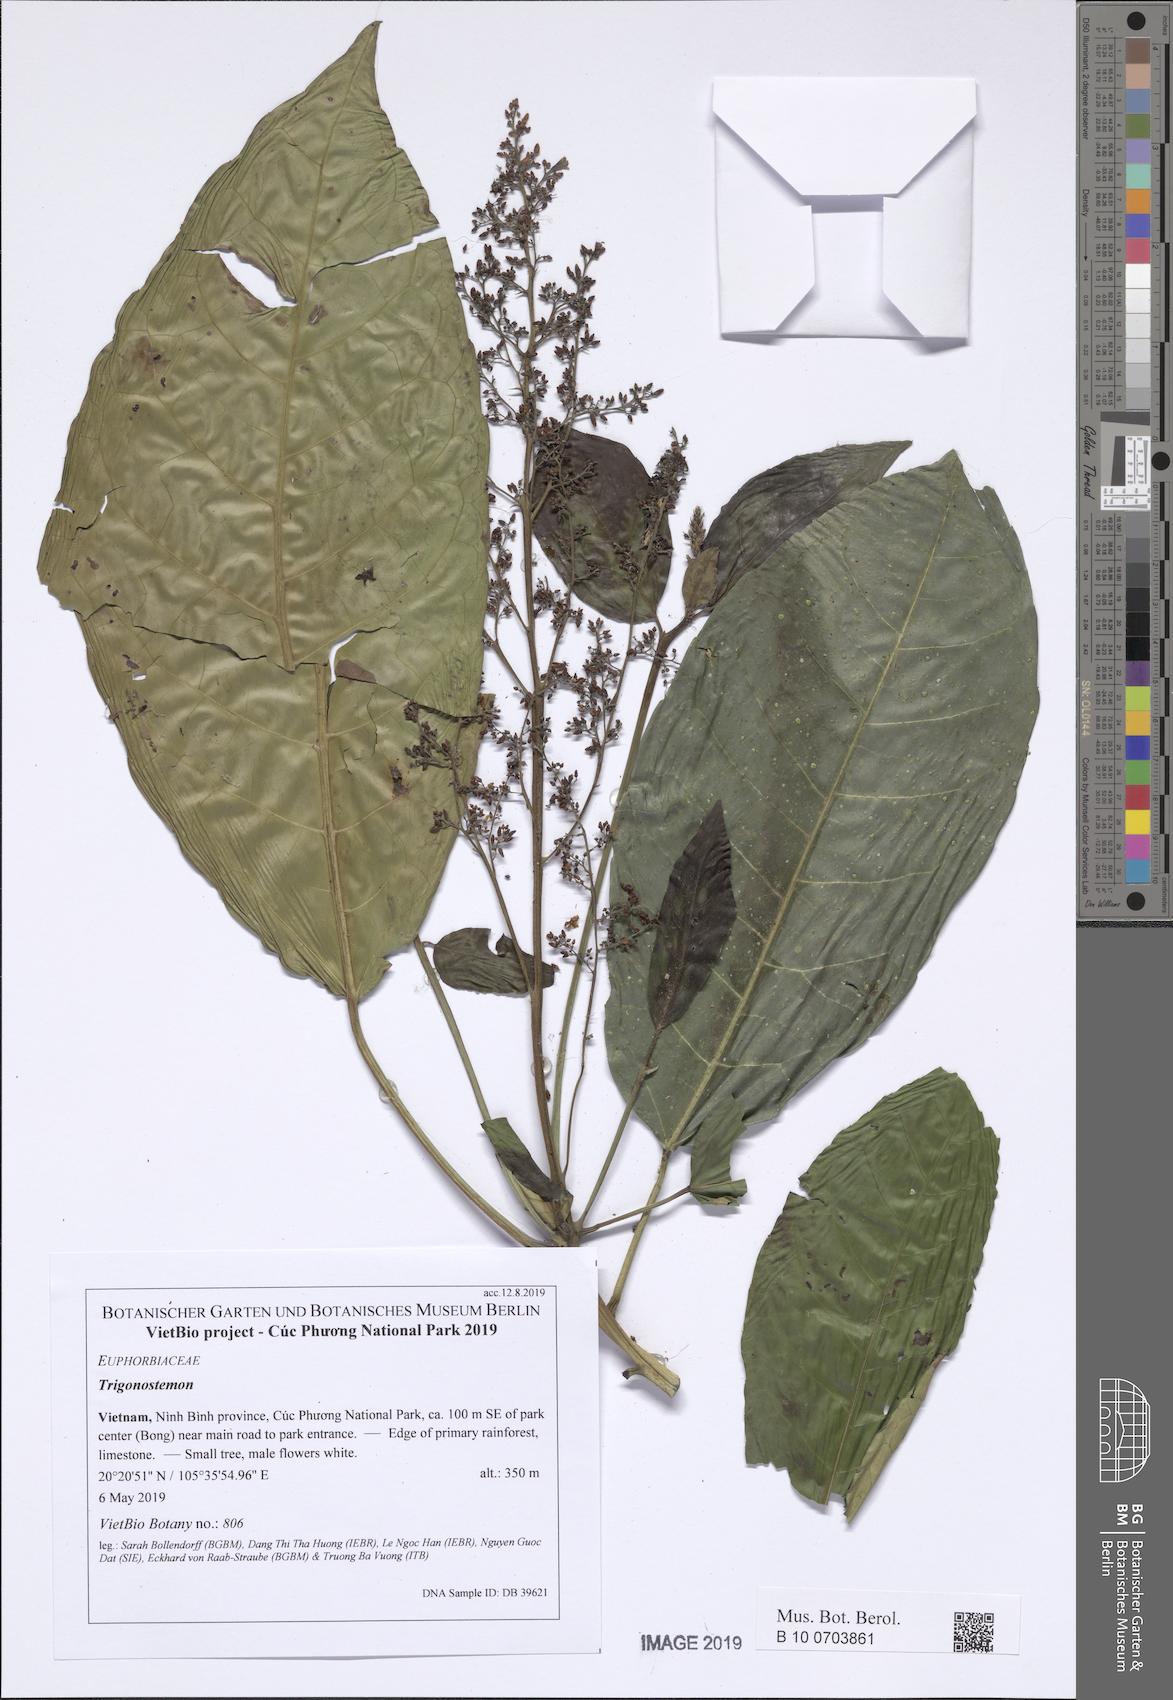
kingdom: Plantae
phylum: Tracheophyta
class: Magnoliopsida
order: Malpighiales
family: Euphorbiaceae
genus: Trigonostemon
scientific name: Trigonostemon philippinensis
